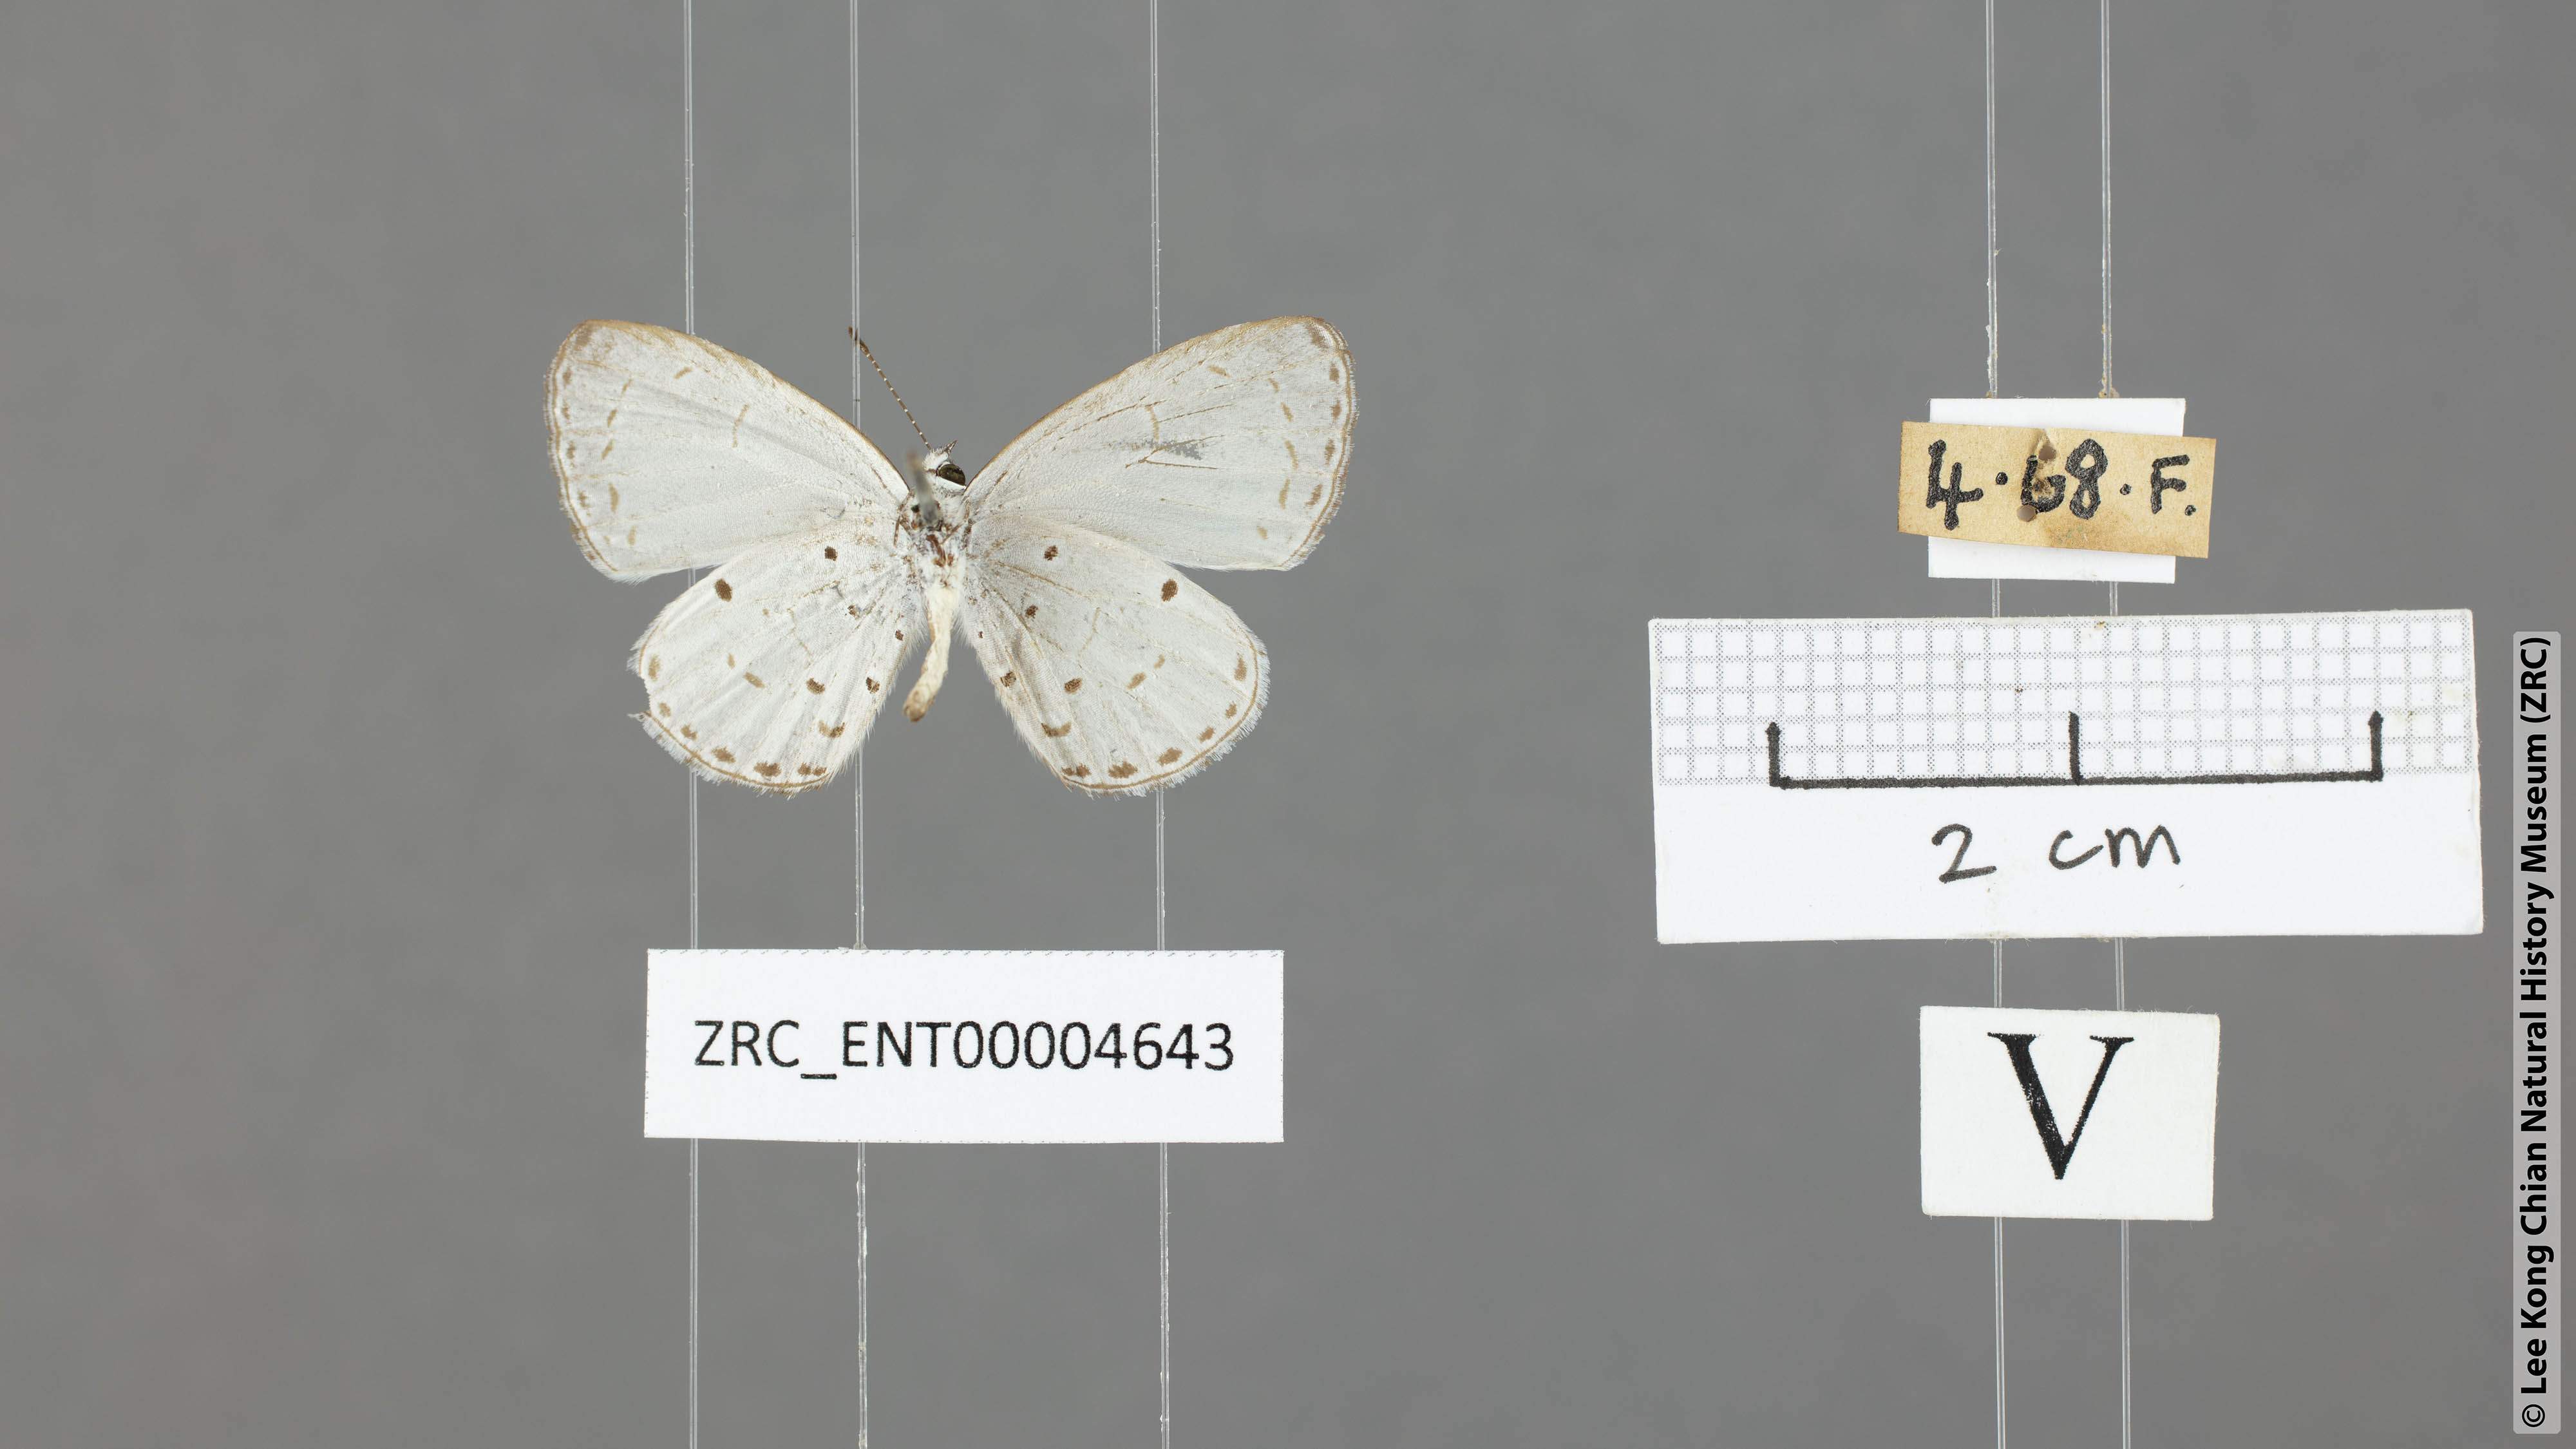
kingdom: Animalia
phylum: Arthropoda
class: Insecta
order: Lepidoptera
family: Lycaenidae
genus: Udara
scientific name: Udara
